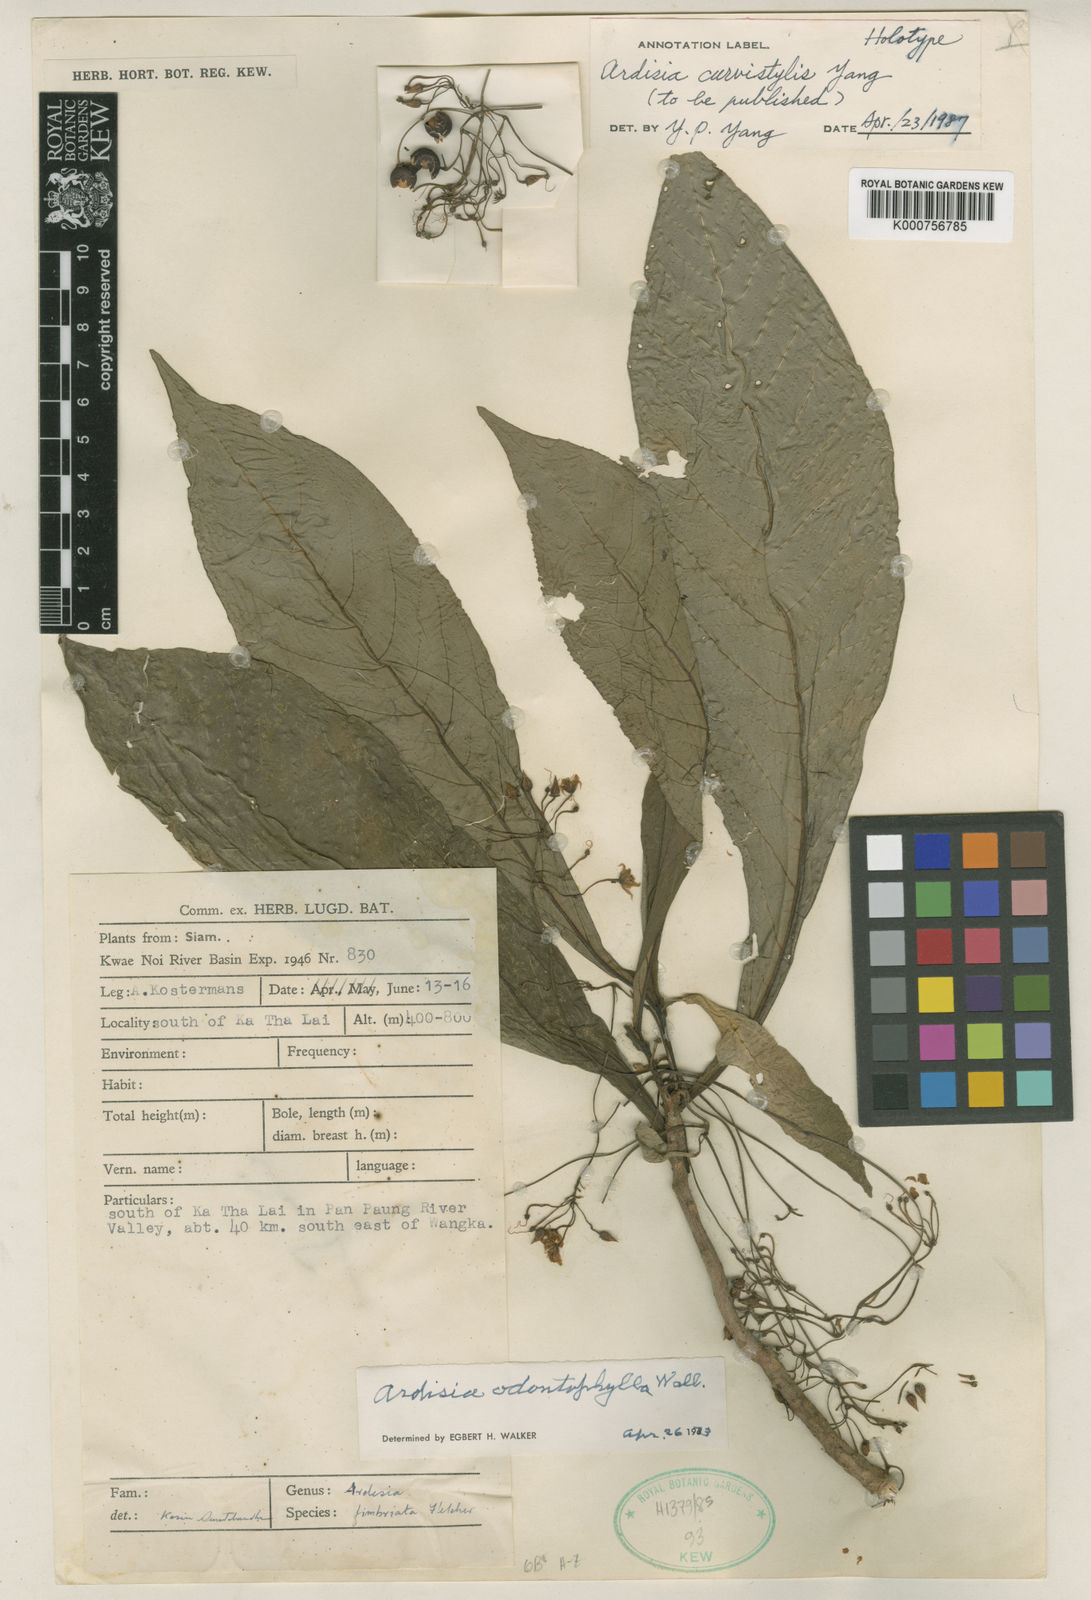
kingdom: Plantae
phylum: Tracheophyta
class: Magnoliopsida
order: Ericales
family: Primulaceae
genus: Ardisia
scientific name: Ardisia curvistyla
